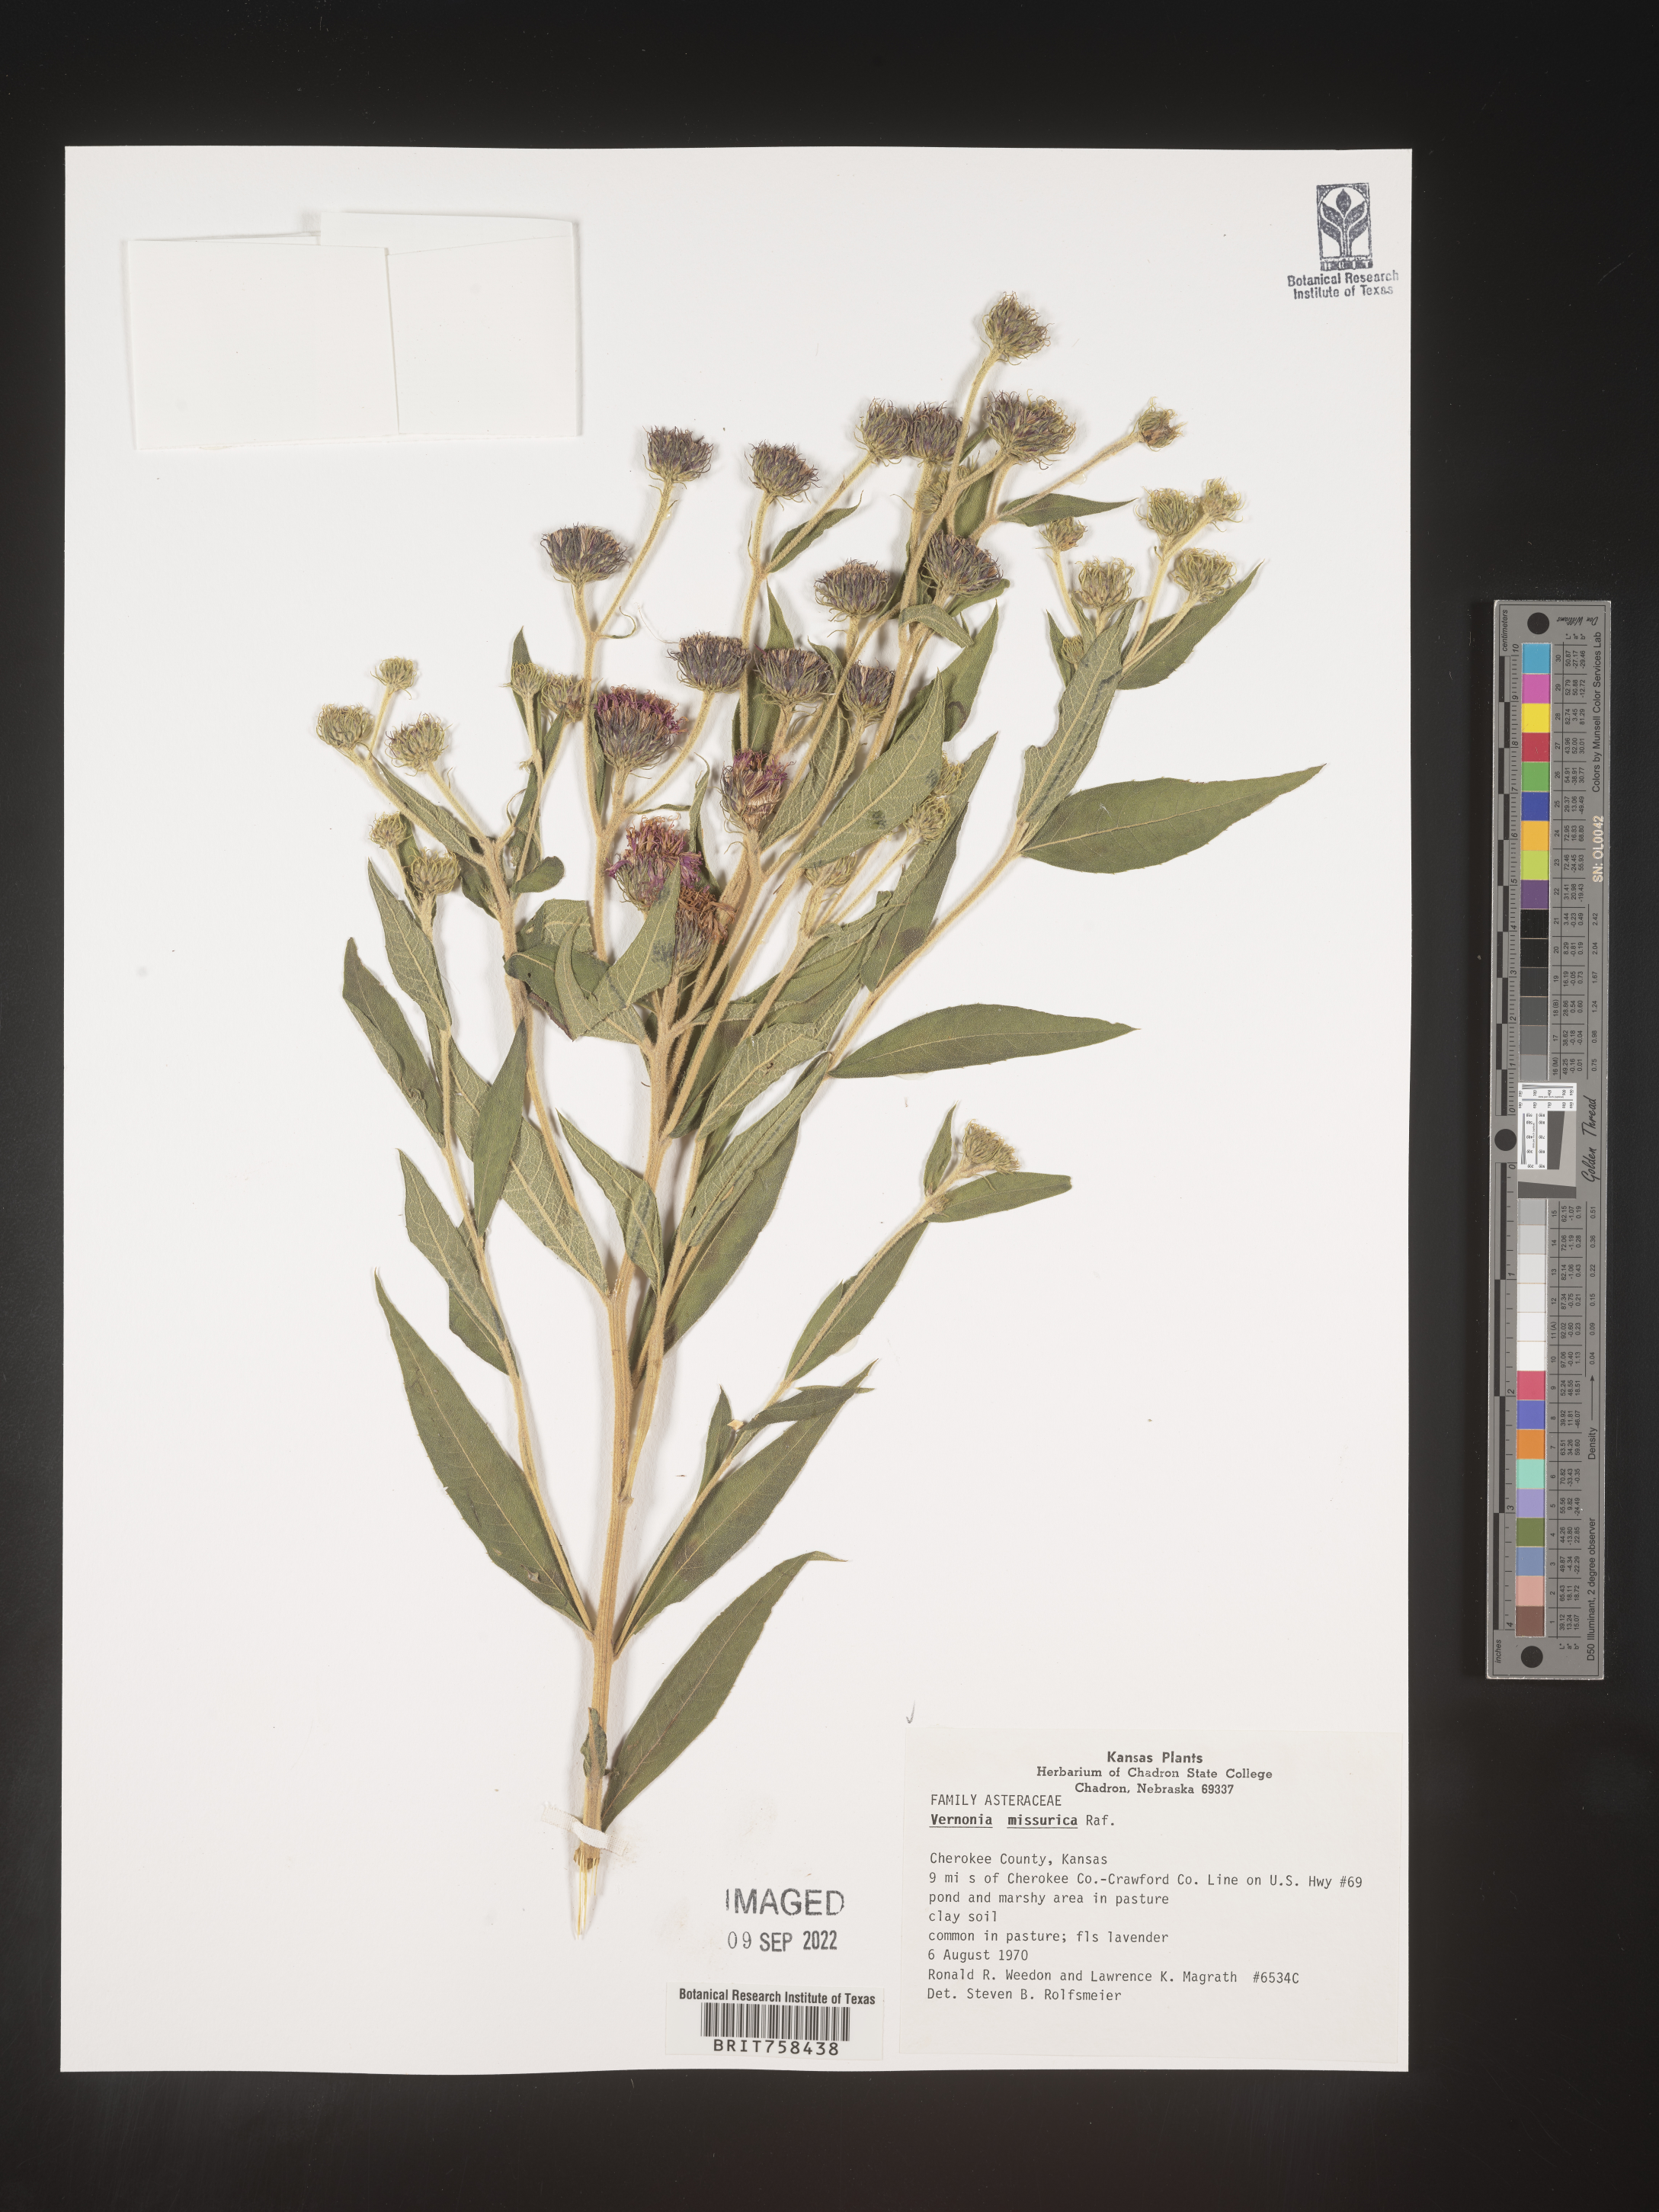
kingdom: Plantae
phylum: Tracheophyta
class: Magnoliopsida
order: Asterales
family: Asteraceae
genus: Vernonia
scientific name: Vernonia missurica
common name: Missouri ironweed
